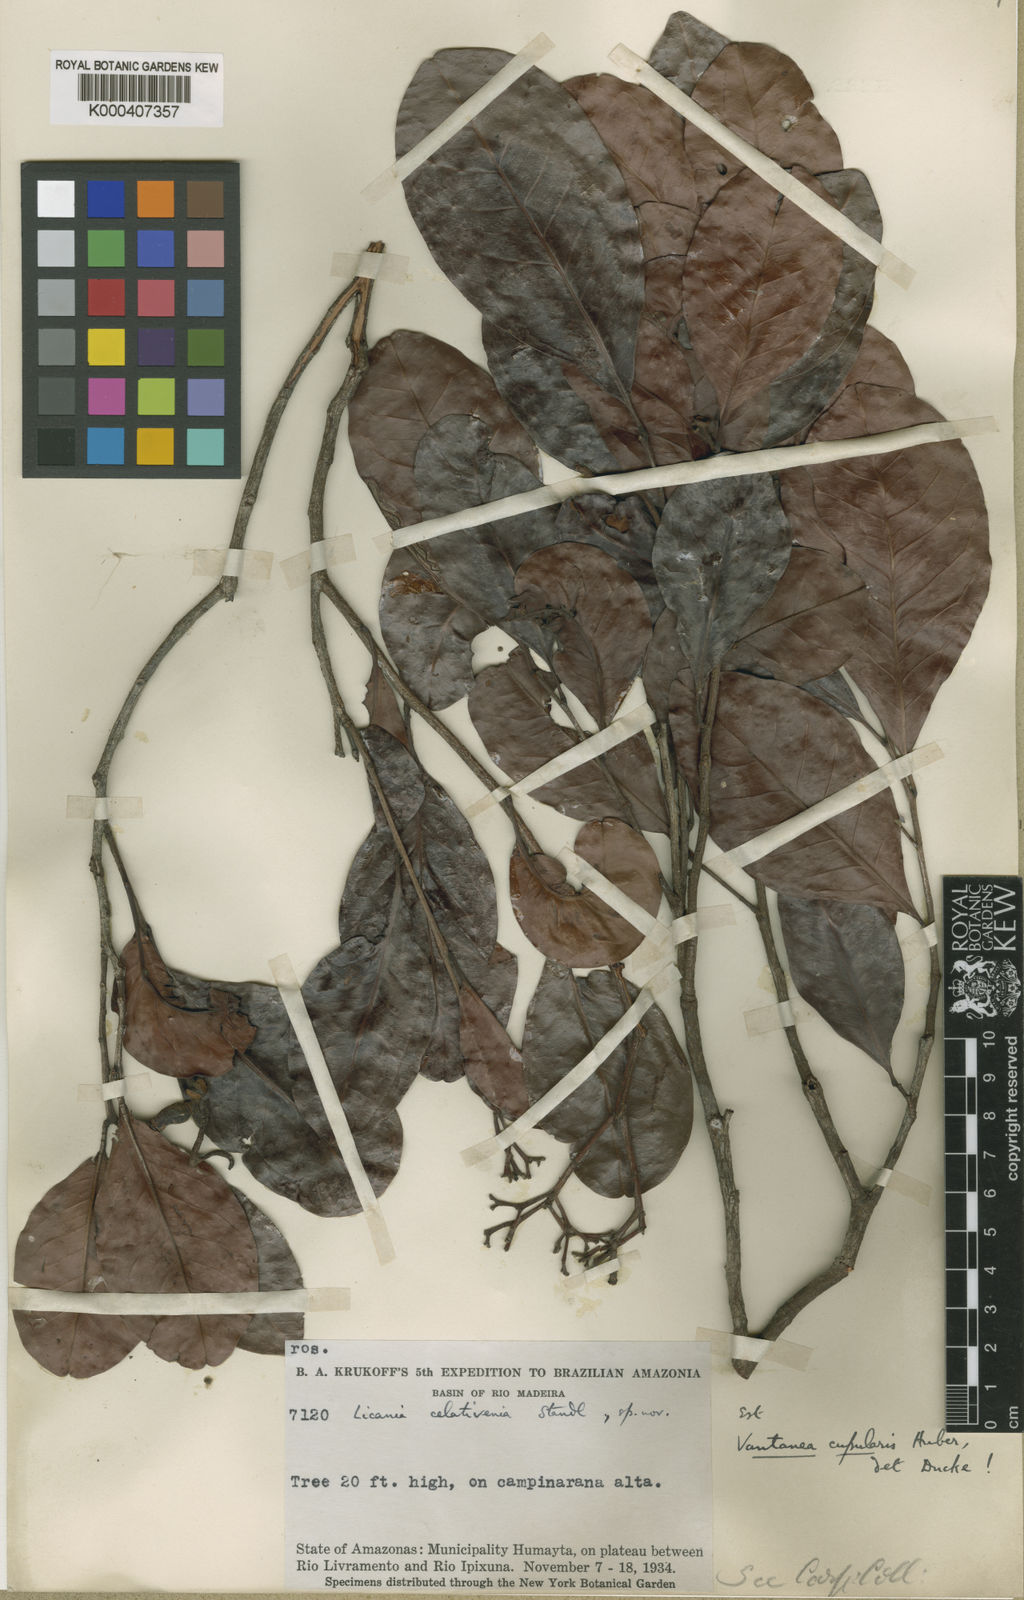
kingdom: Plantae
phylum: Tracheophyta
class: Magnoliopsida
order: Malpighiales
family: Humiriaceae
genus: Vantanea
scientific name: Vantanea paraensis
